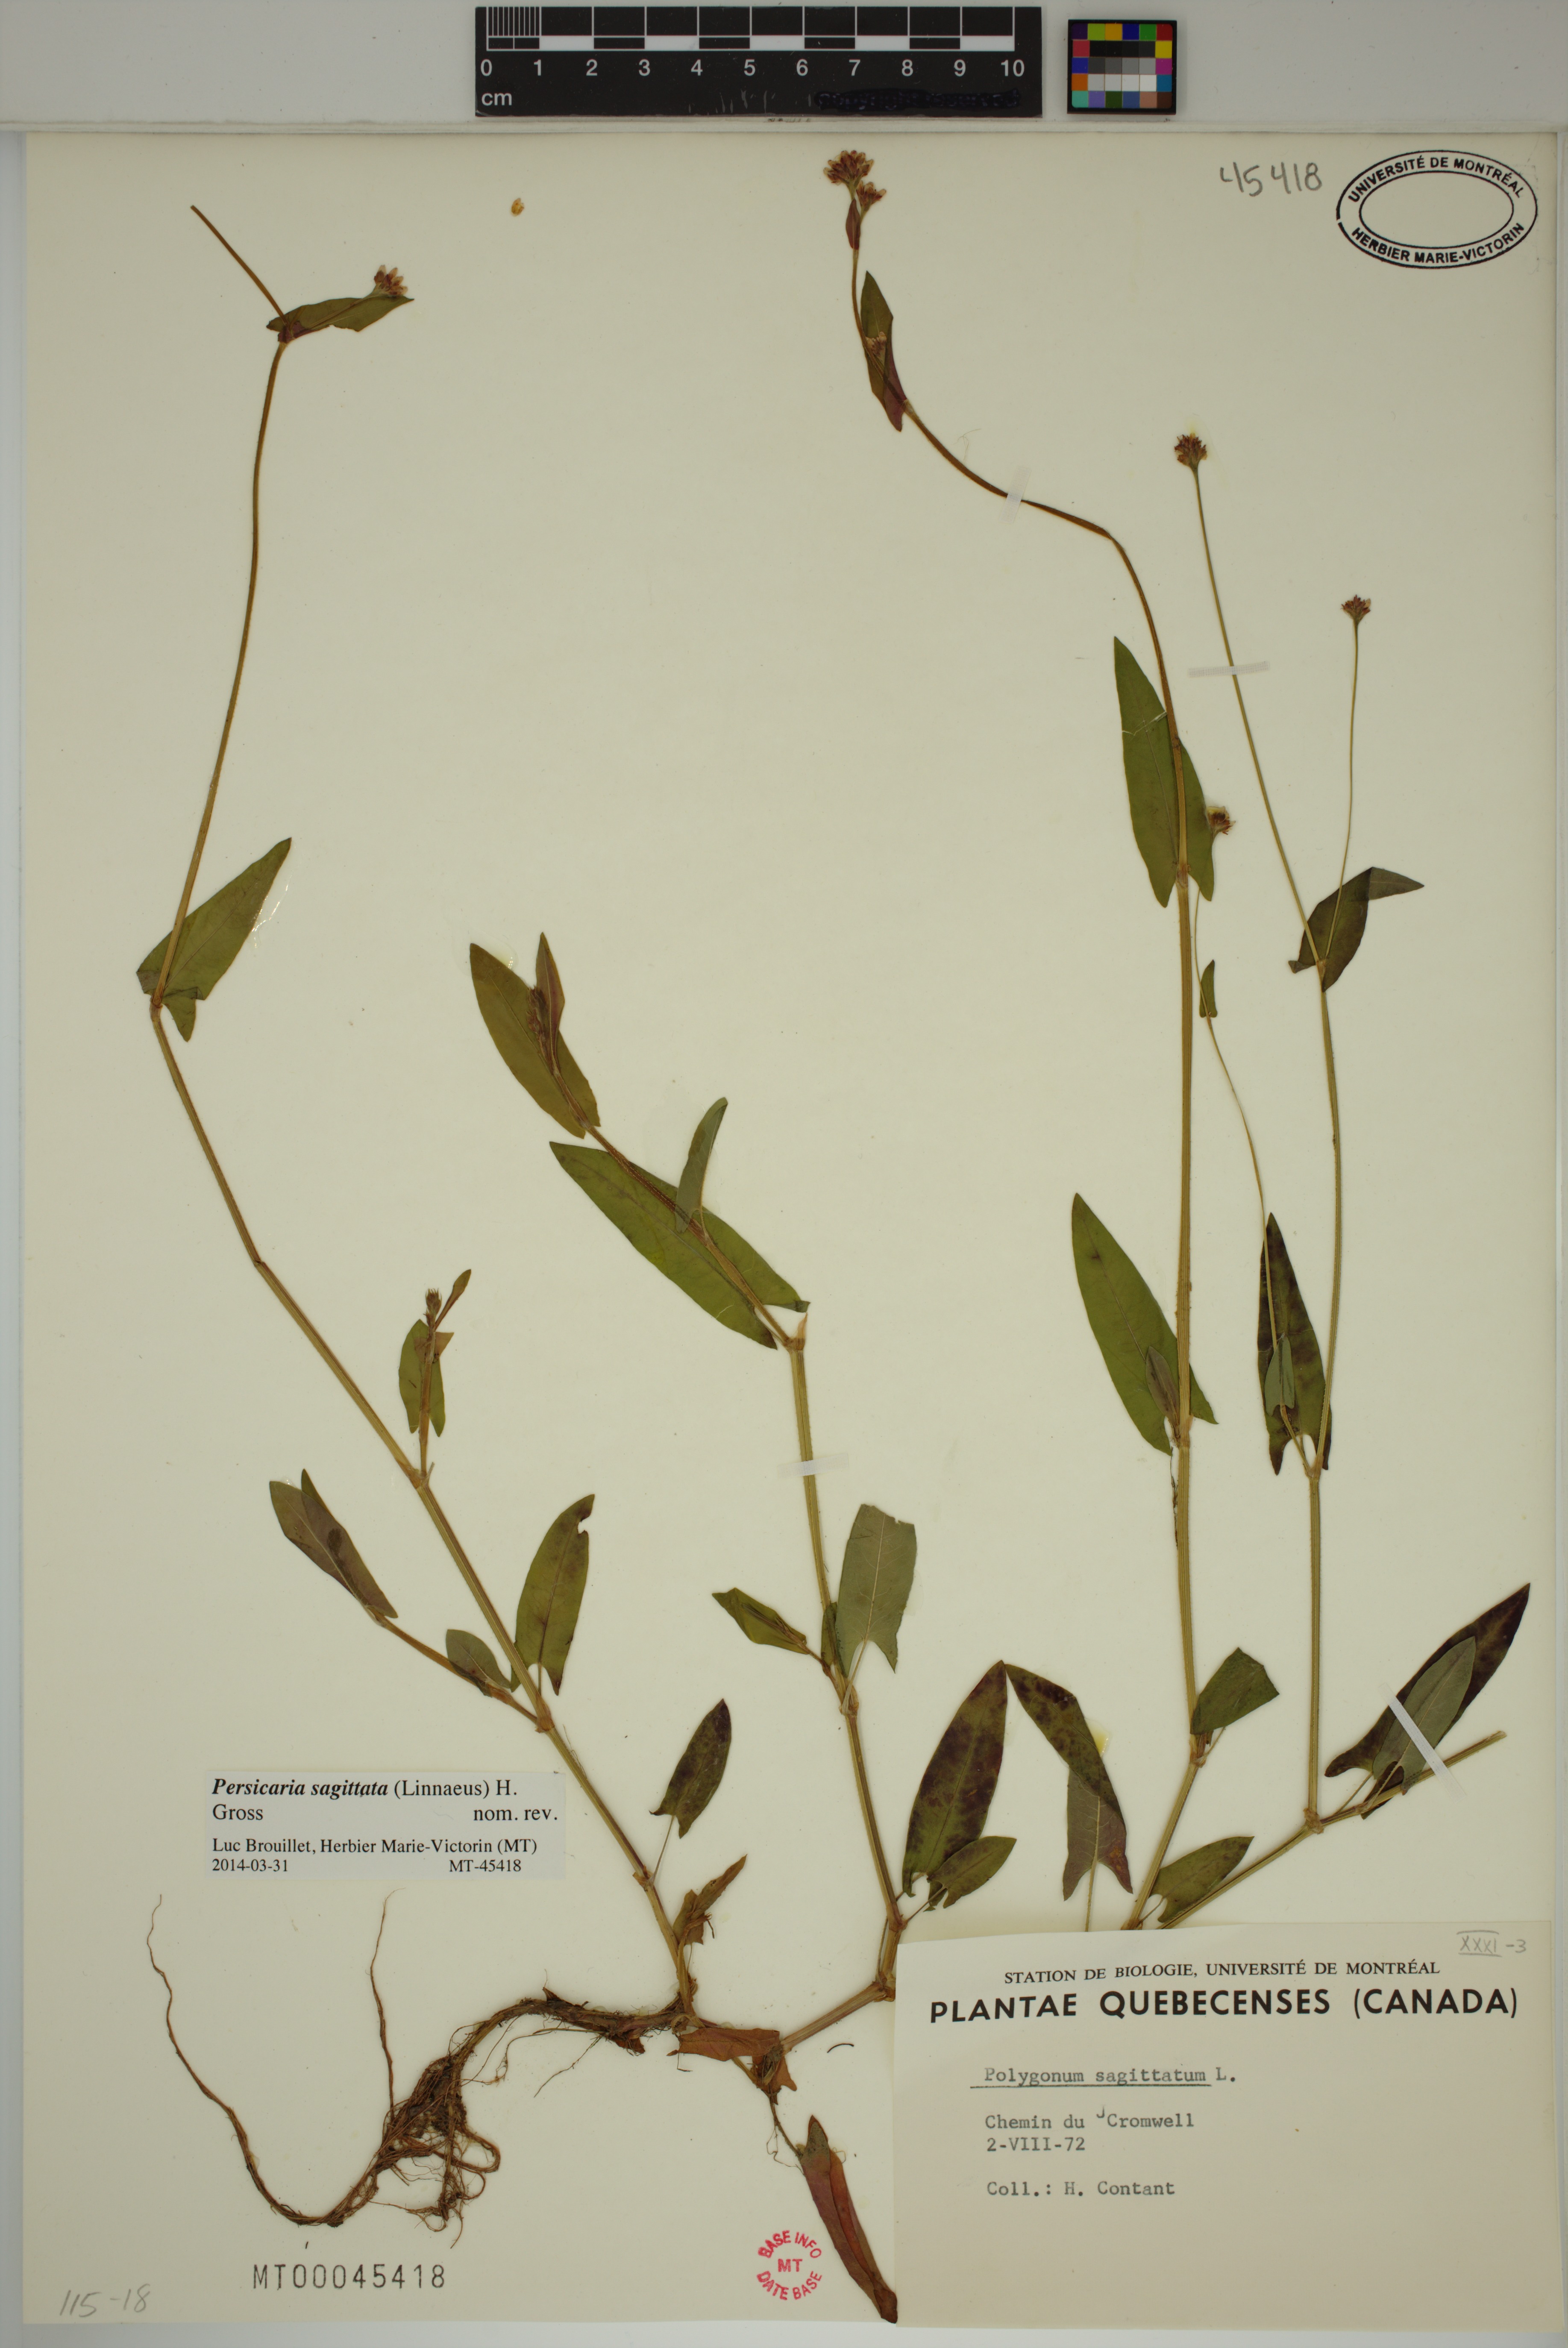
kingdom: Plantae
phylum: Tracheophyta
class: Magnoliopsida
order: Caryophyllales
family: Polygonaceae
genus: Persicaria
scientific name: Persicaria sagittata
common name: American tearthumb
